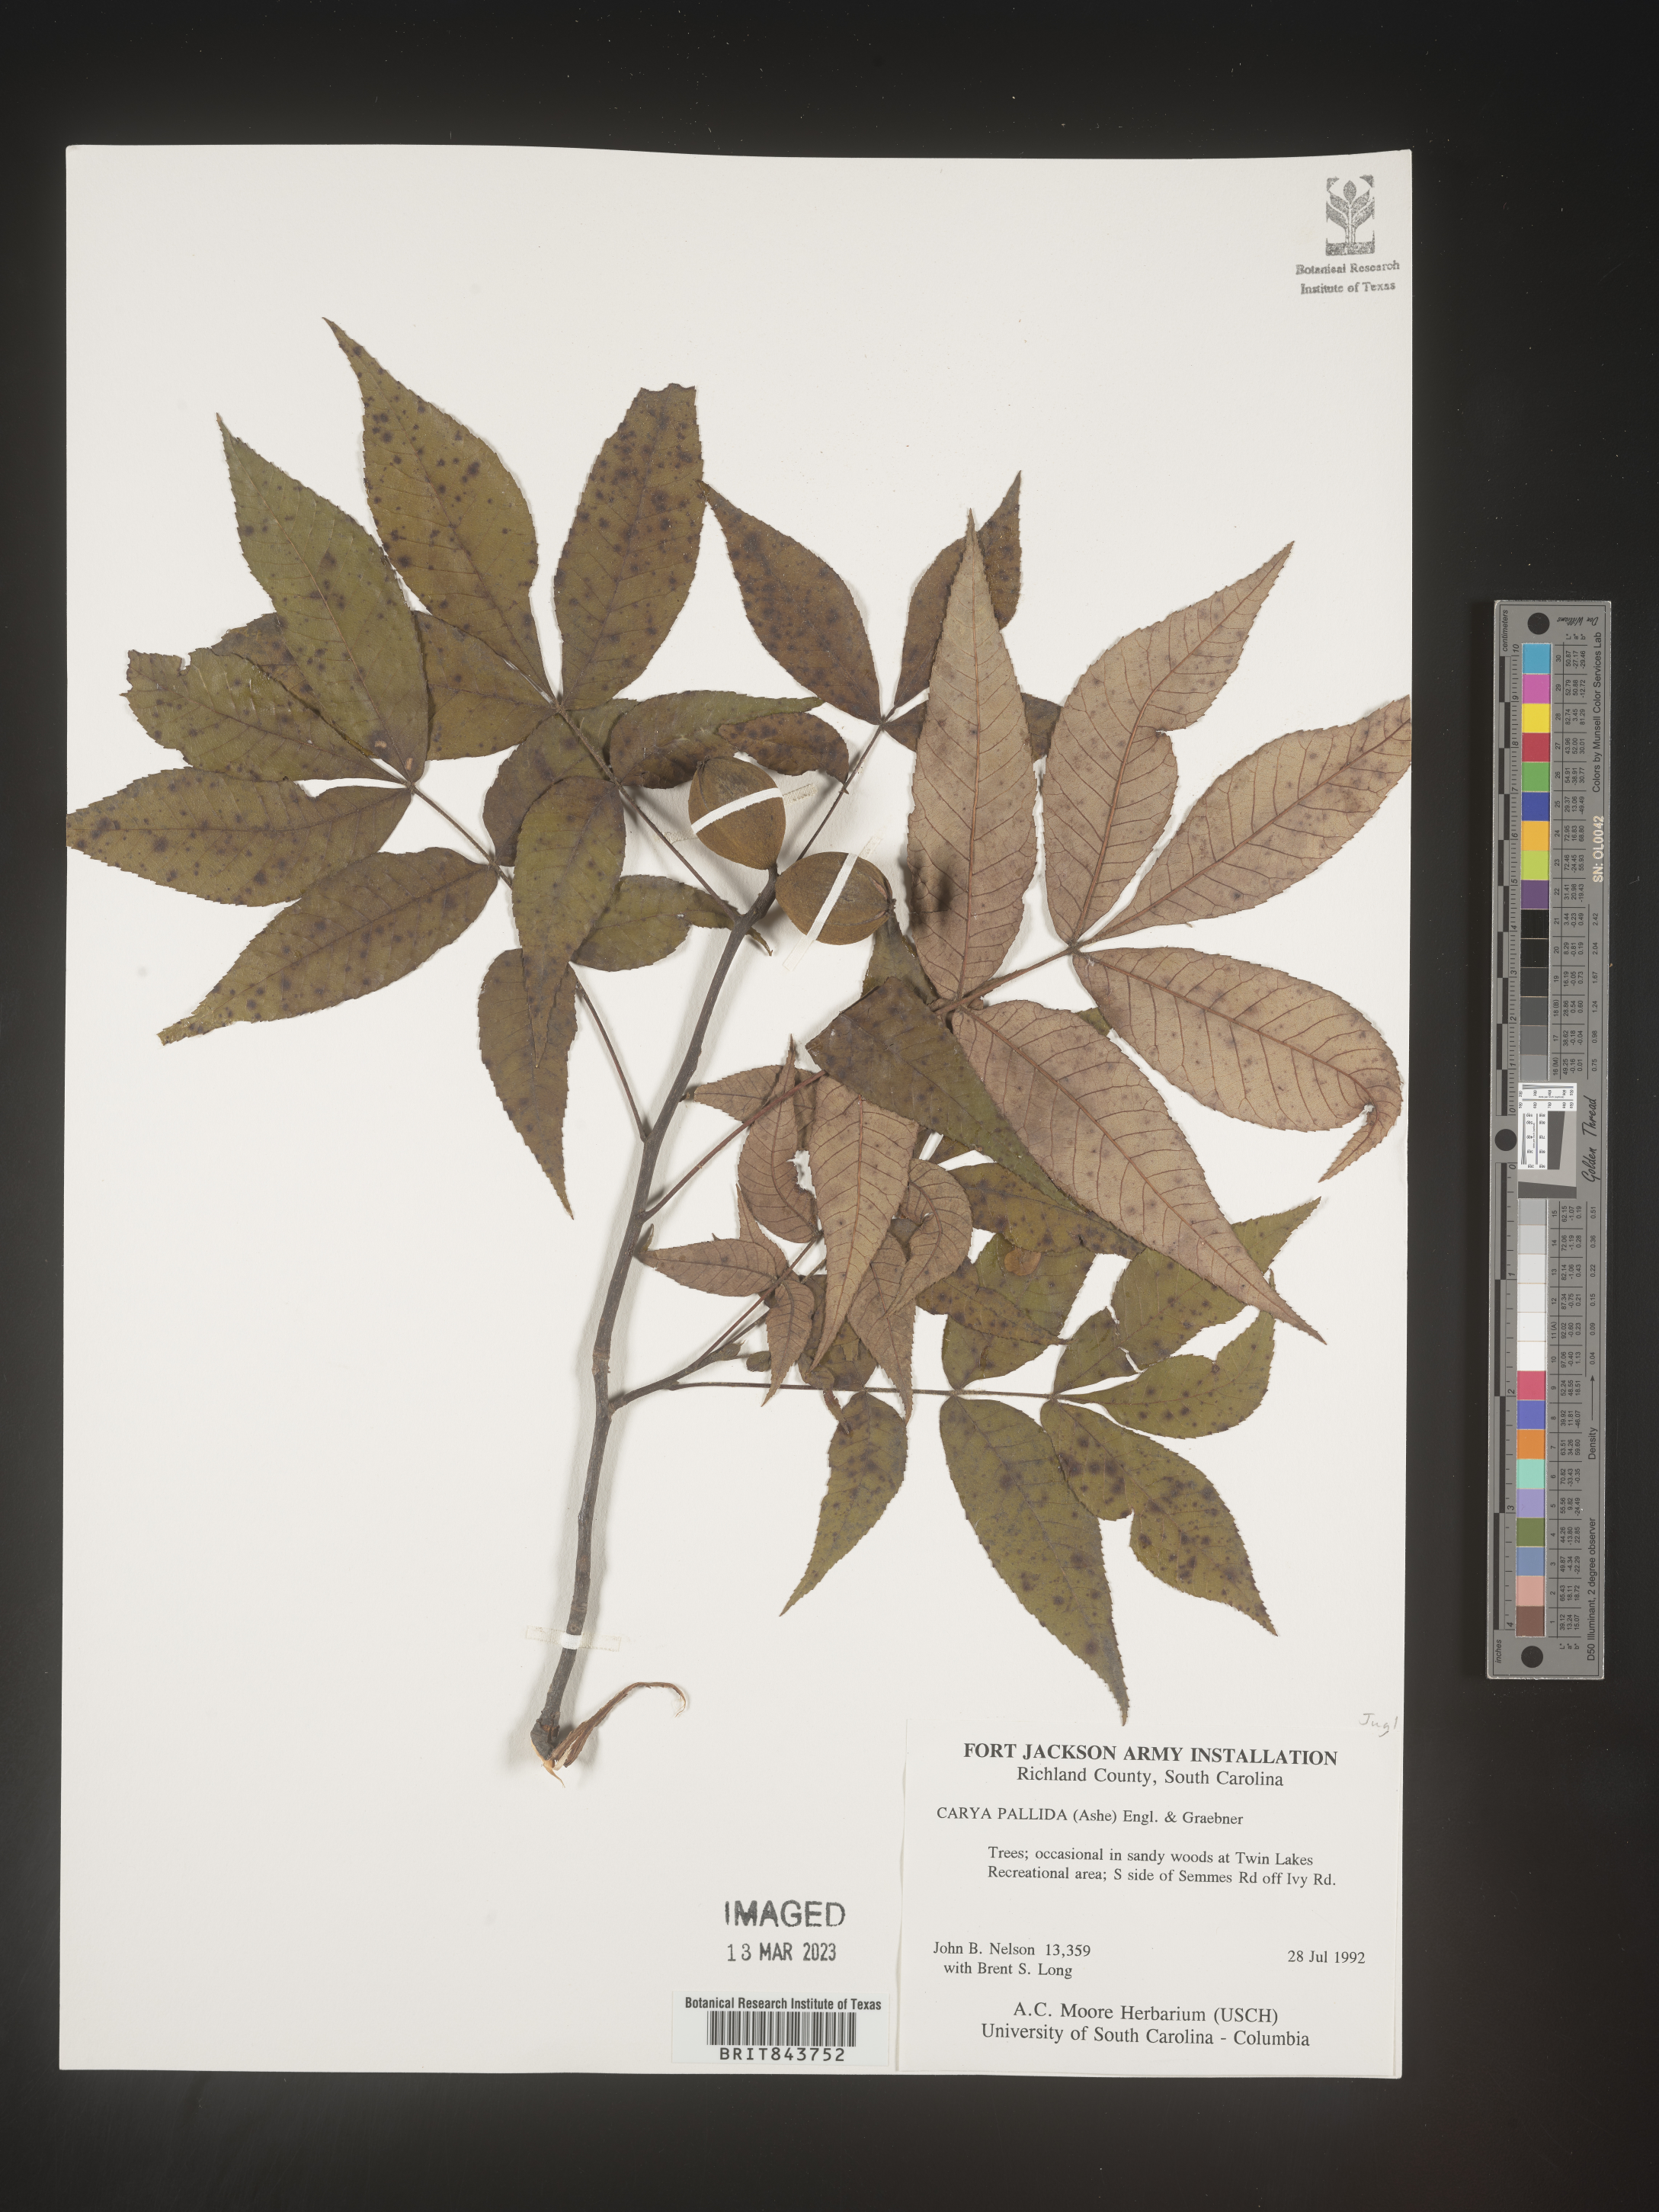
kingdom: Plantae
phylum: Tracheophyta
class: Magnoliopsida
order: Fagales
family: Juglandaceae
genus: Carya
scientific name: Carya pallida
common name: Sand hickory
